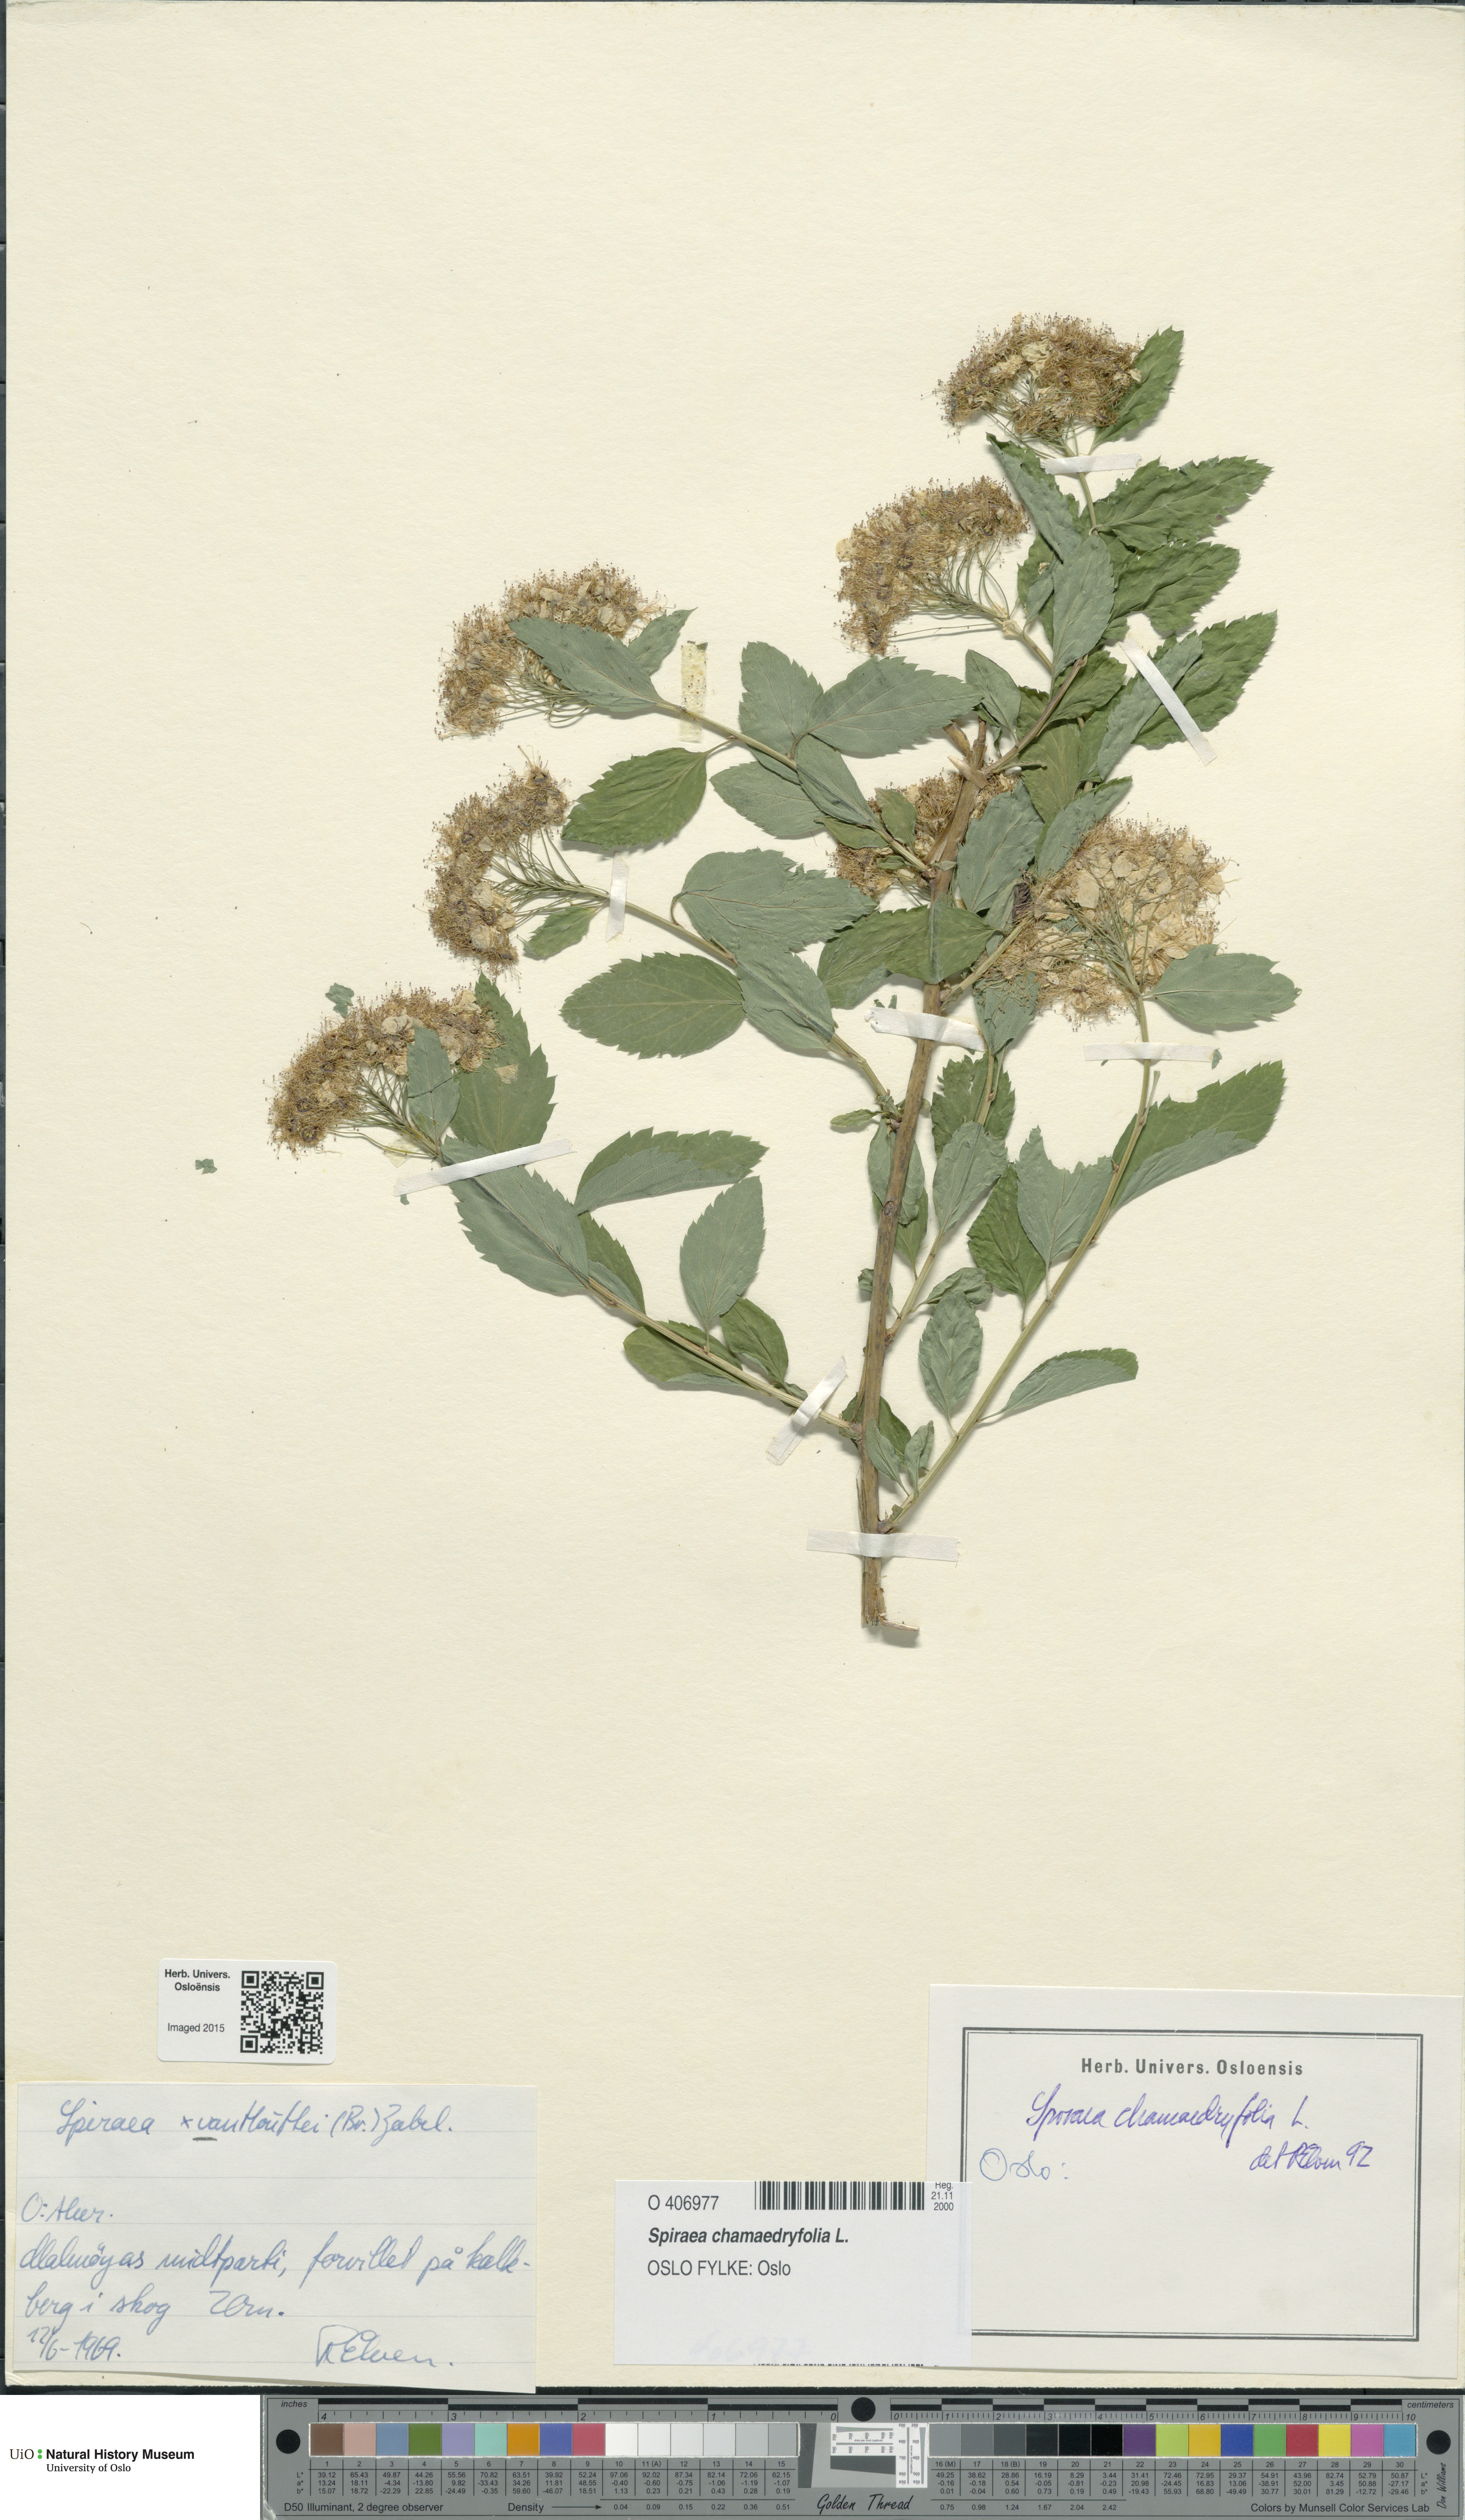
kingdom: Plantae
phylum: Tracheophyta
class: Magnoliopsida
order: Rosales
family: Rosaceae
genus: Spiraea
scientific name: Spiraea chamaedryfolia
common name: Elm-leaved spiraea
